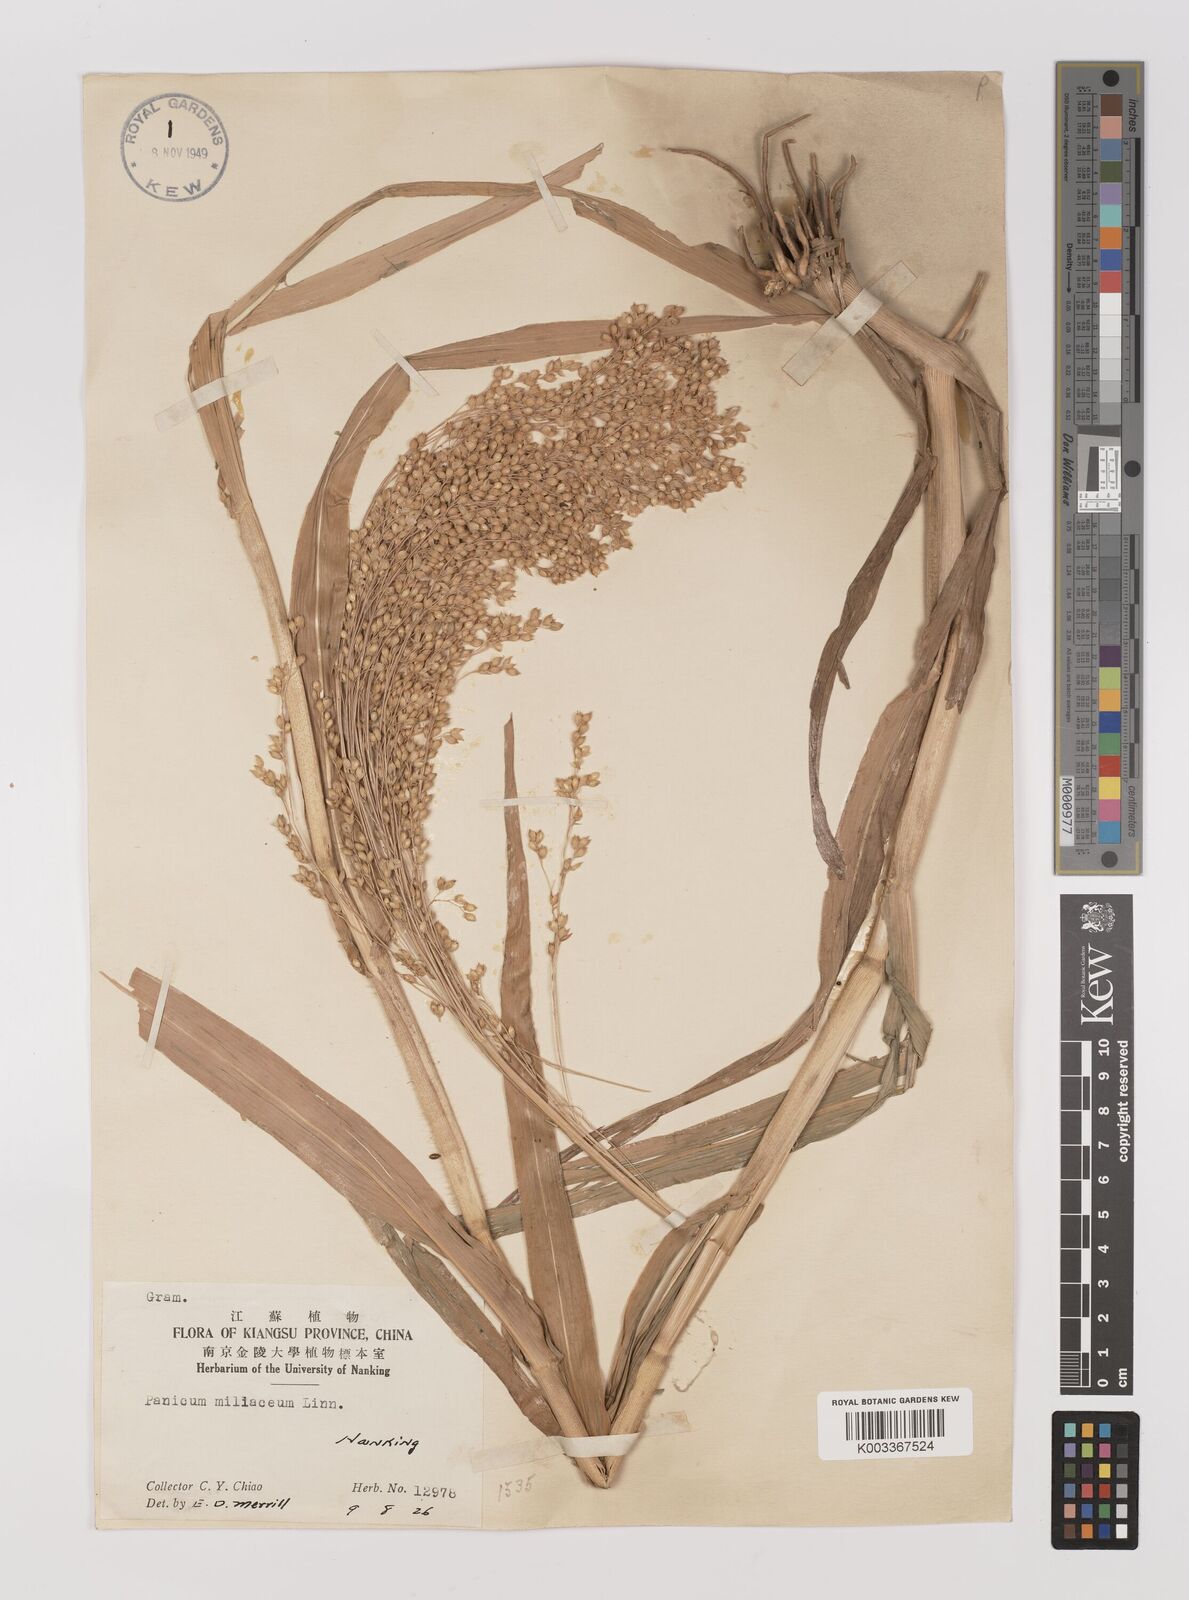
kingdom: Plantae
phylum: Tracheophyta
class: Liliopsida
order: Poales
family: Poaceae
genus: Panicum
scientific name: Panicum miliaceum
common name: Common millet
